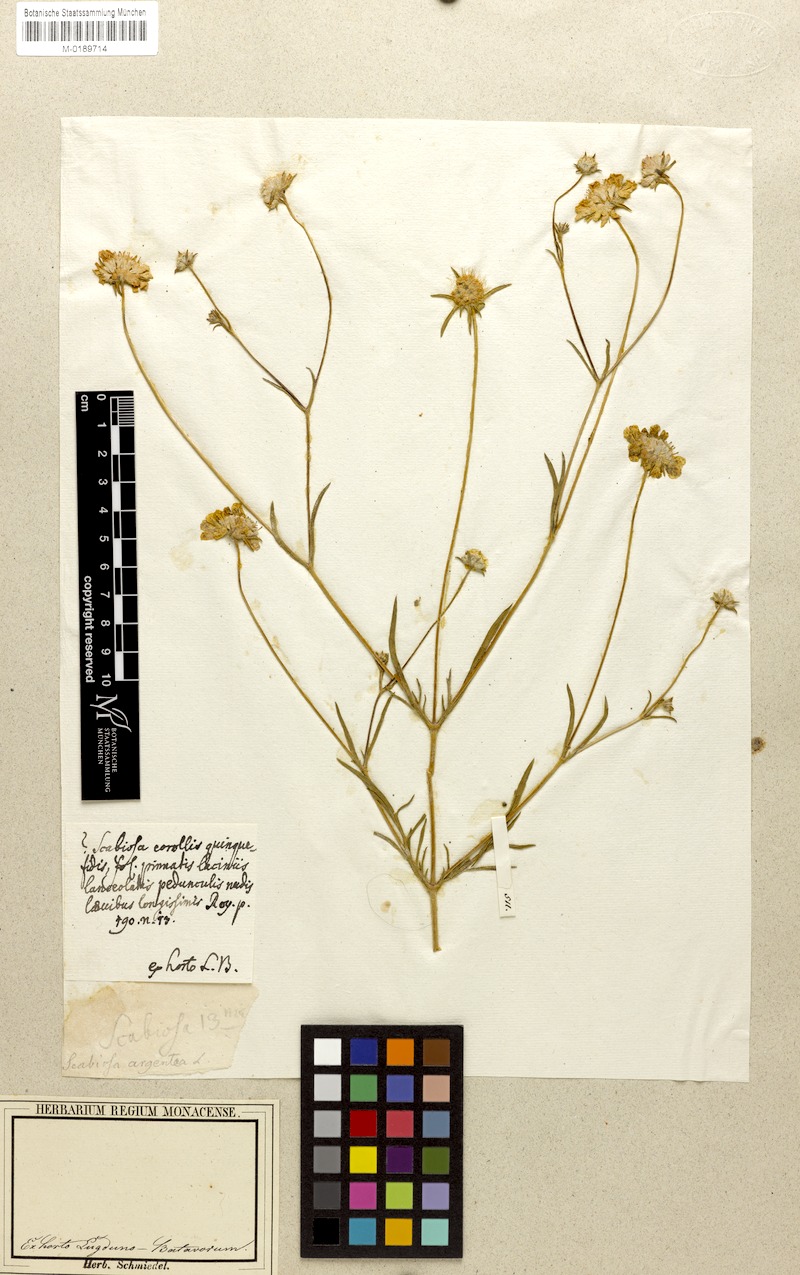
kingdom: Plantae
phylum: Tracheophyta
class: Magnoliopsida
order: Dipsacales
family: Caprifoliaceae
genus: Lomelosia
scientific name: Lomelosia argentea
